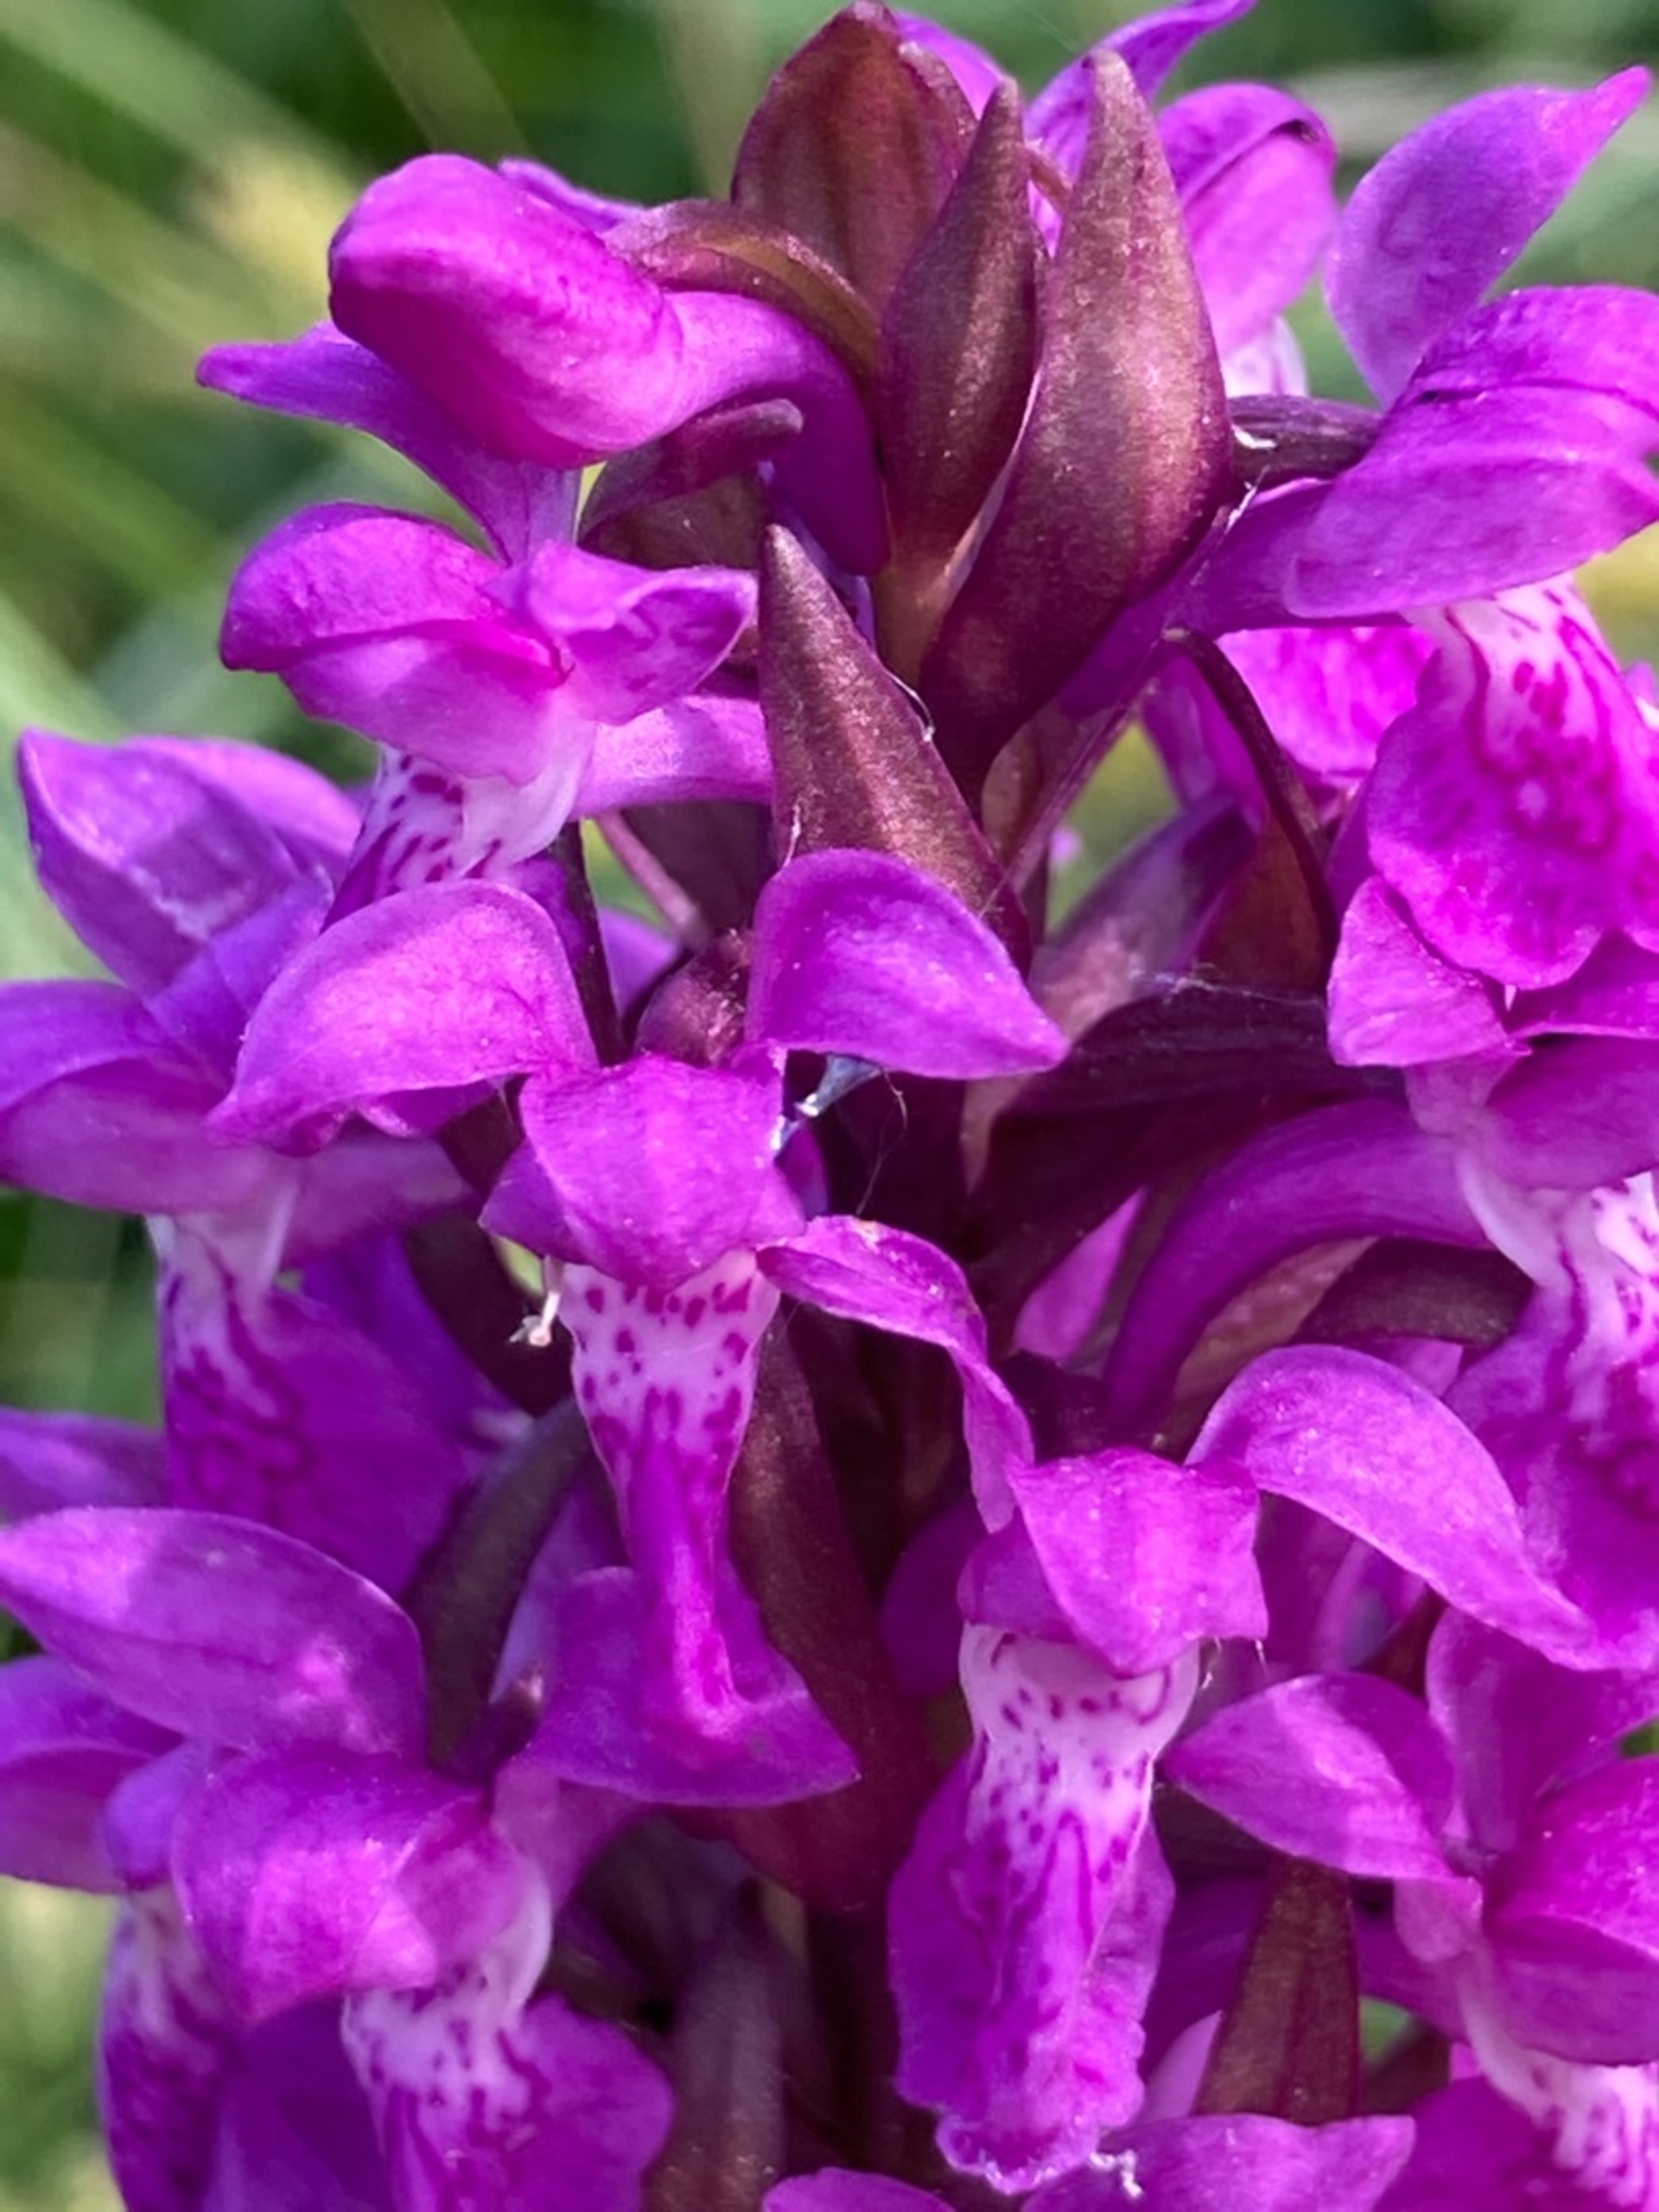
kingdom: Plantae
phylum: Tracheophyta
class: Liliopsida
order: Asparagales
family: Orchidaceae
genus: Dactylorhiza
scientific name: Dactylorhiza majalis
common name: Maj-gøgeurt
